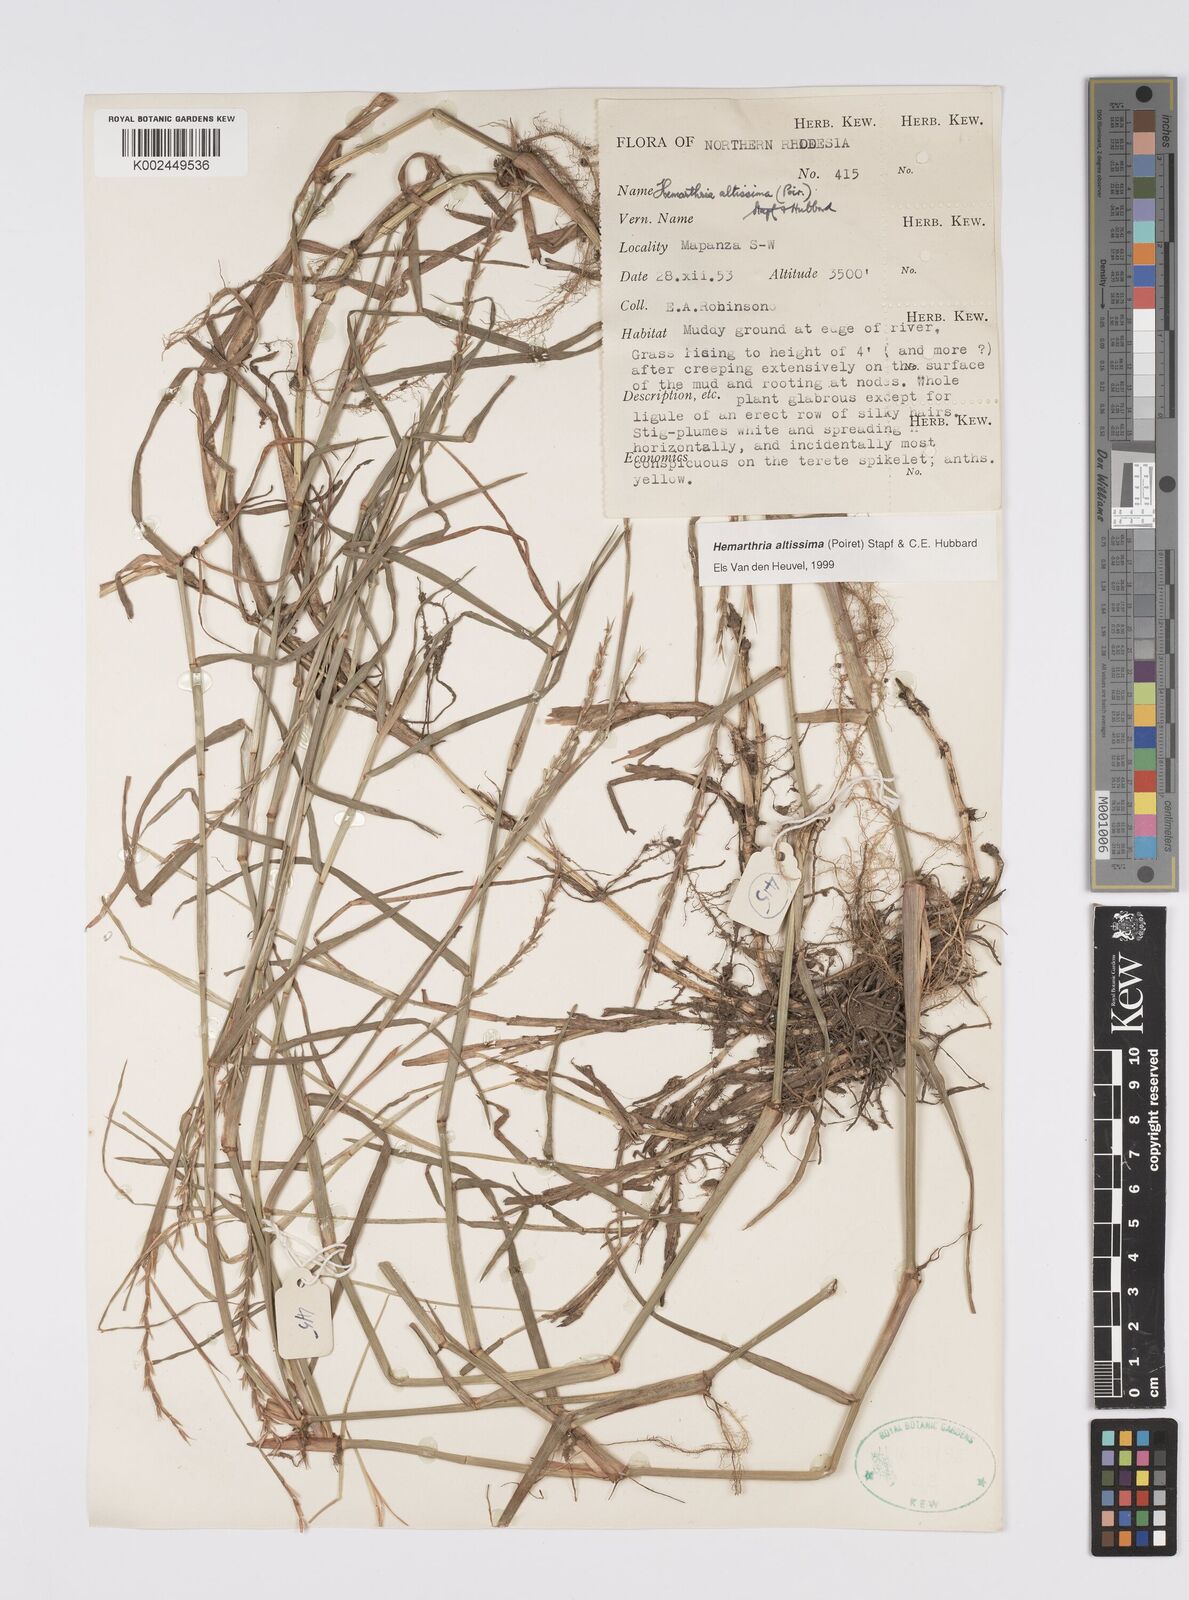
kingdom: Plantae
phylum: Tracheophyta
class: Liliopsida
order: Poales
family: Poaceae
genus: Hemarthria
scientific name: Hemarthria altissima
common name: African jointgrass
